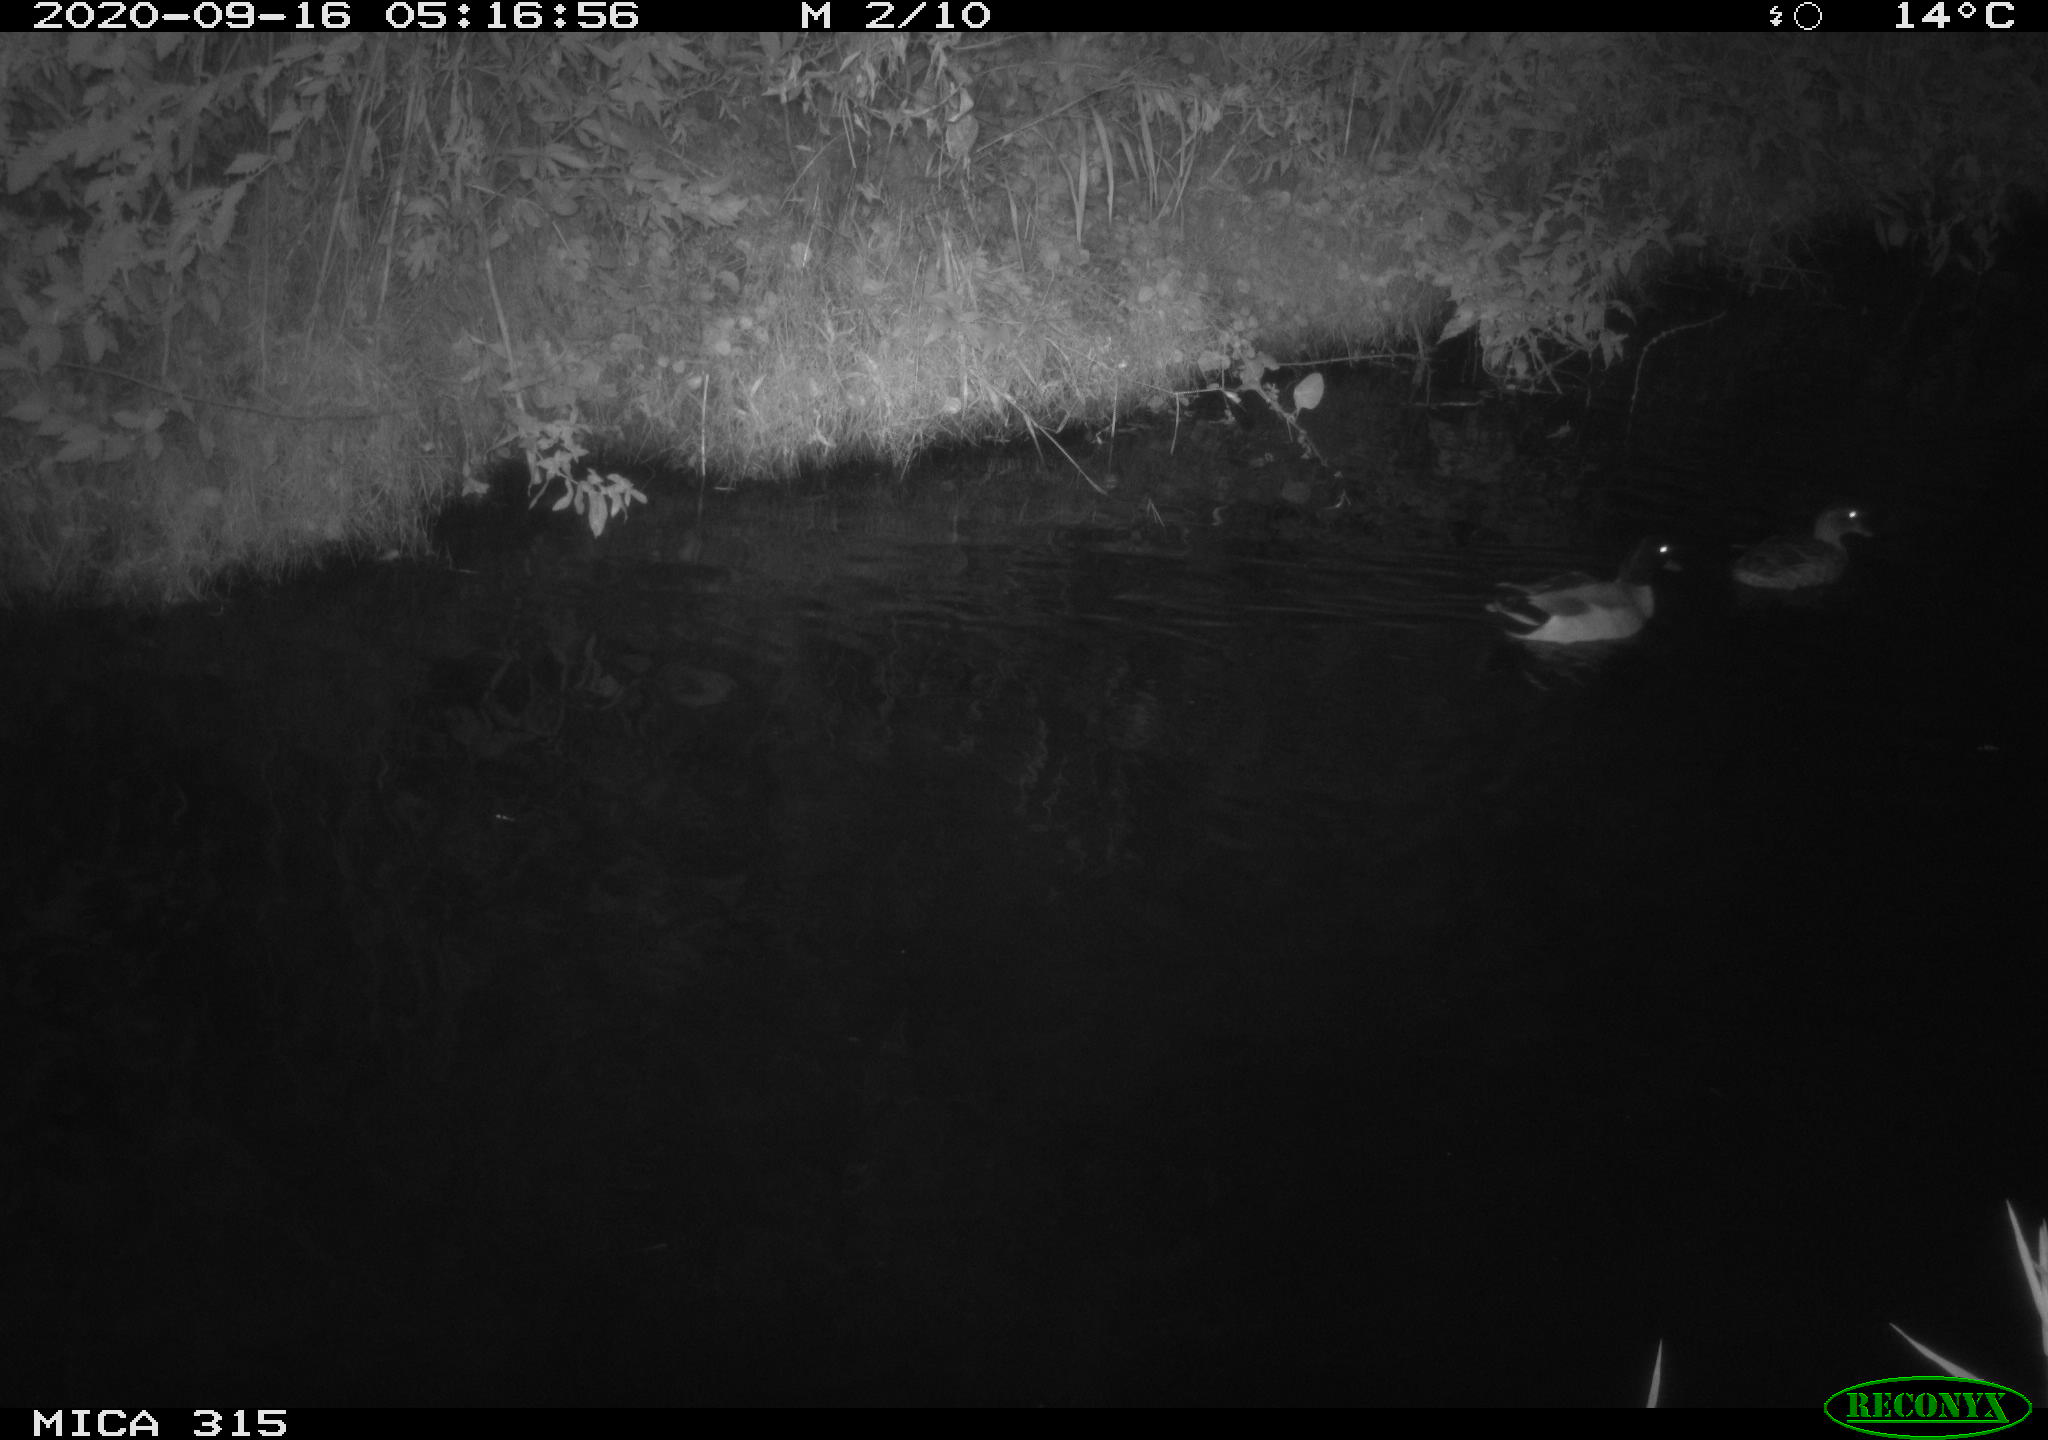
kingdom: Animalia
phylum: Chordata
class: Aves
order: Anseriformes
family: Anatidae
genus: Anas
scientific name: Anas platyrhynchos
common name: Mallard
